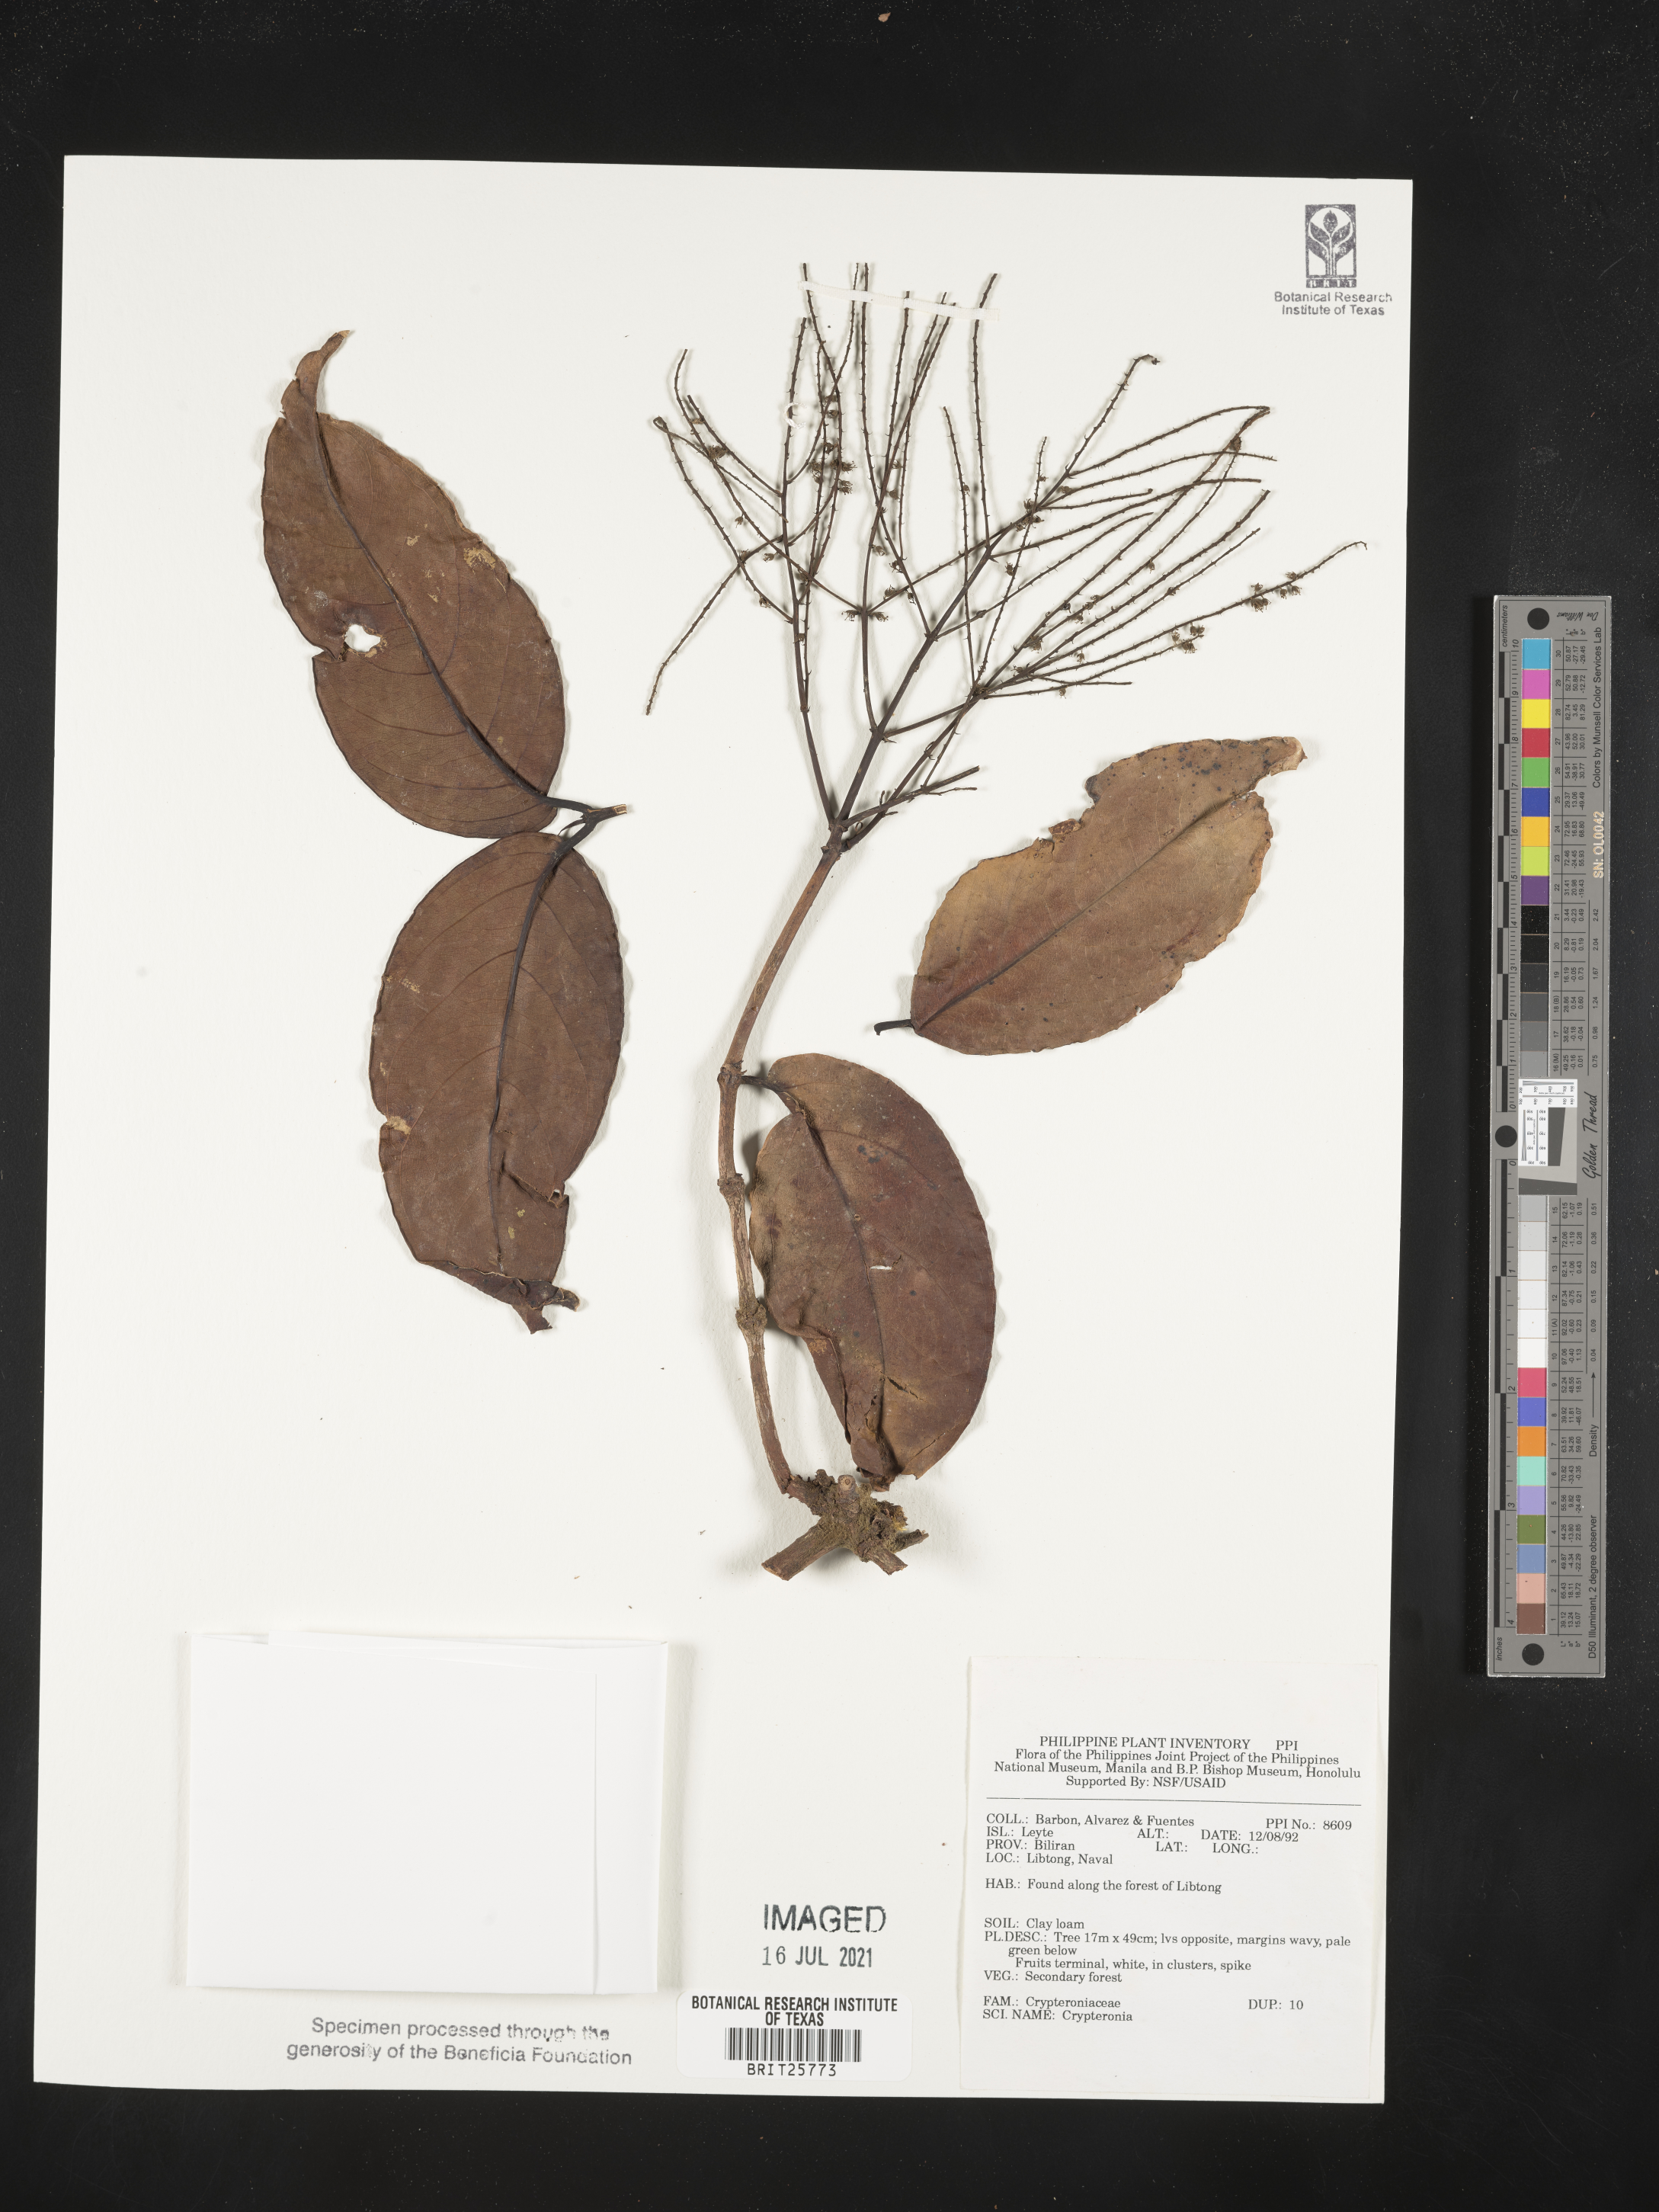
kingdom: Plantae
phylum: Tracheophyta
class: Magnoliopsida
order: Myrtales
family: Crypteroniaceae
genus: Crypteronia
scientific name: Crypteronia
